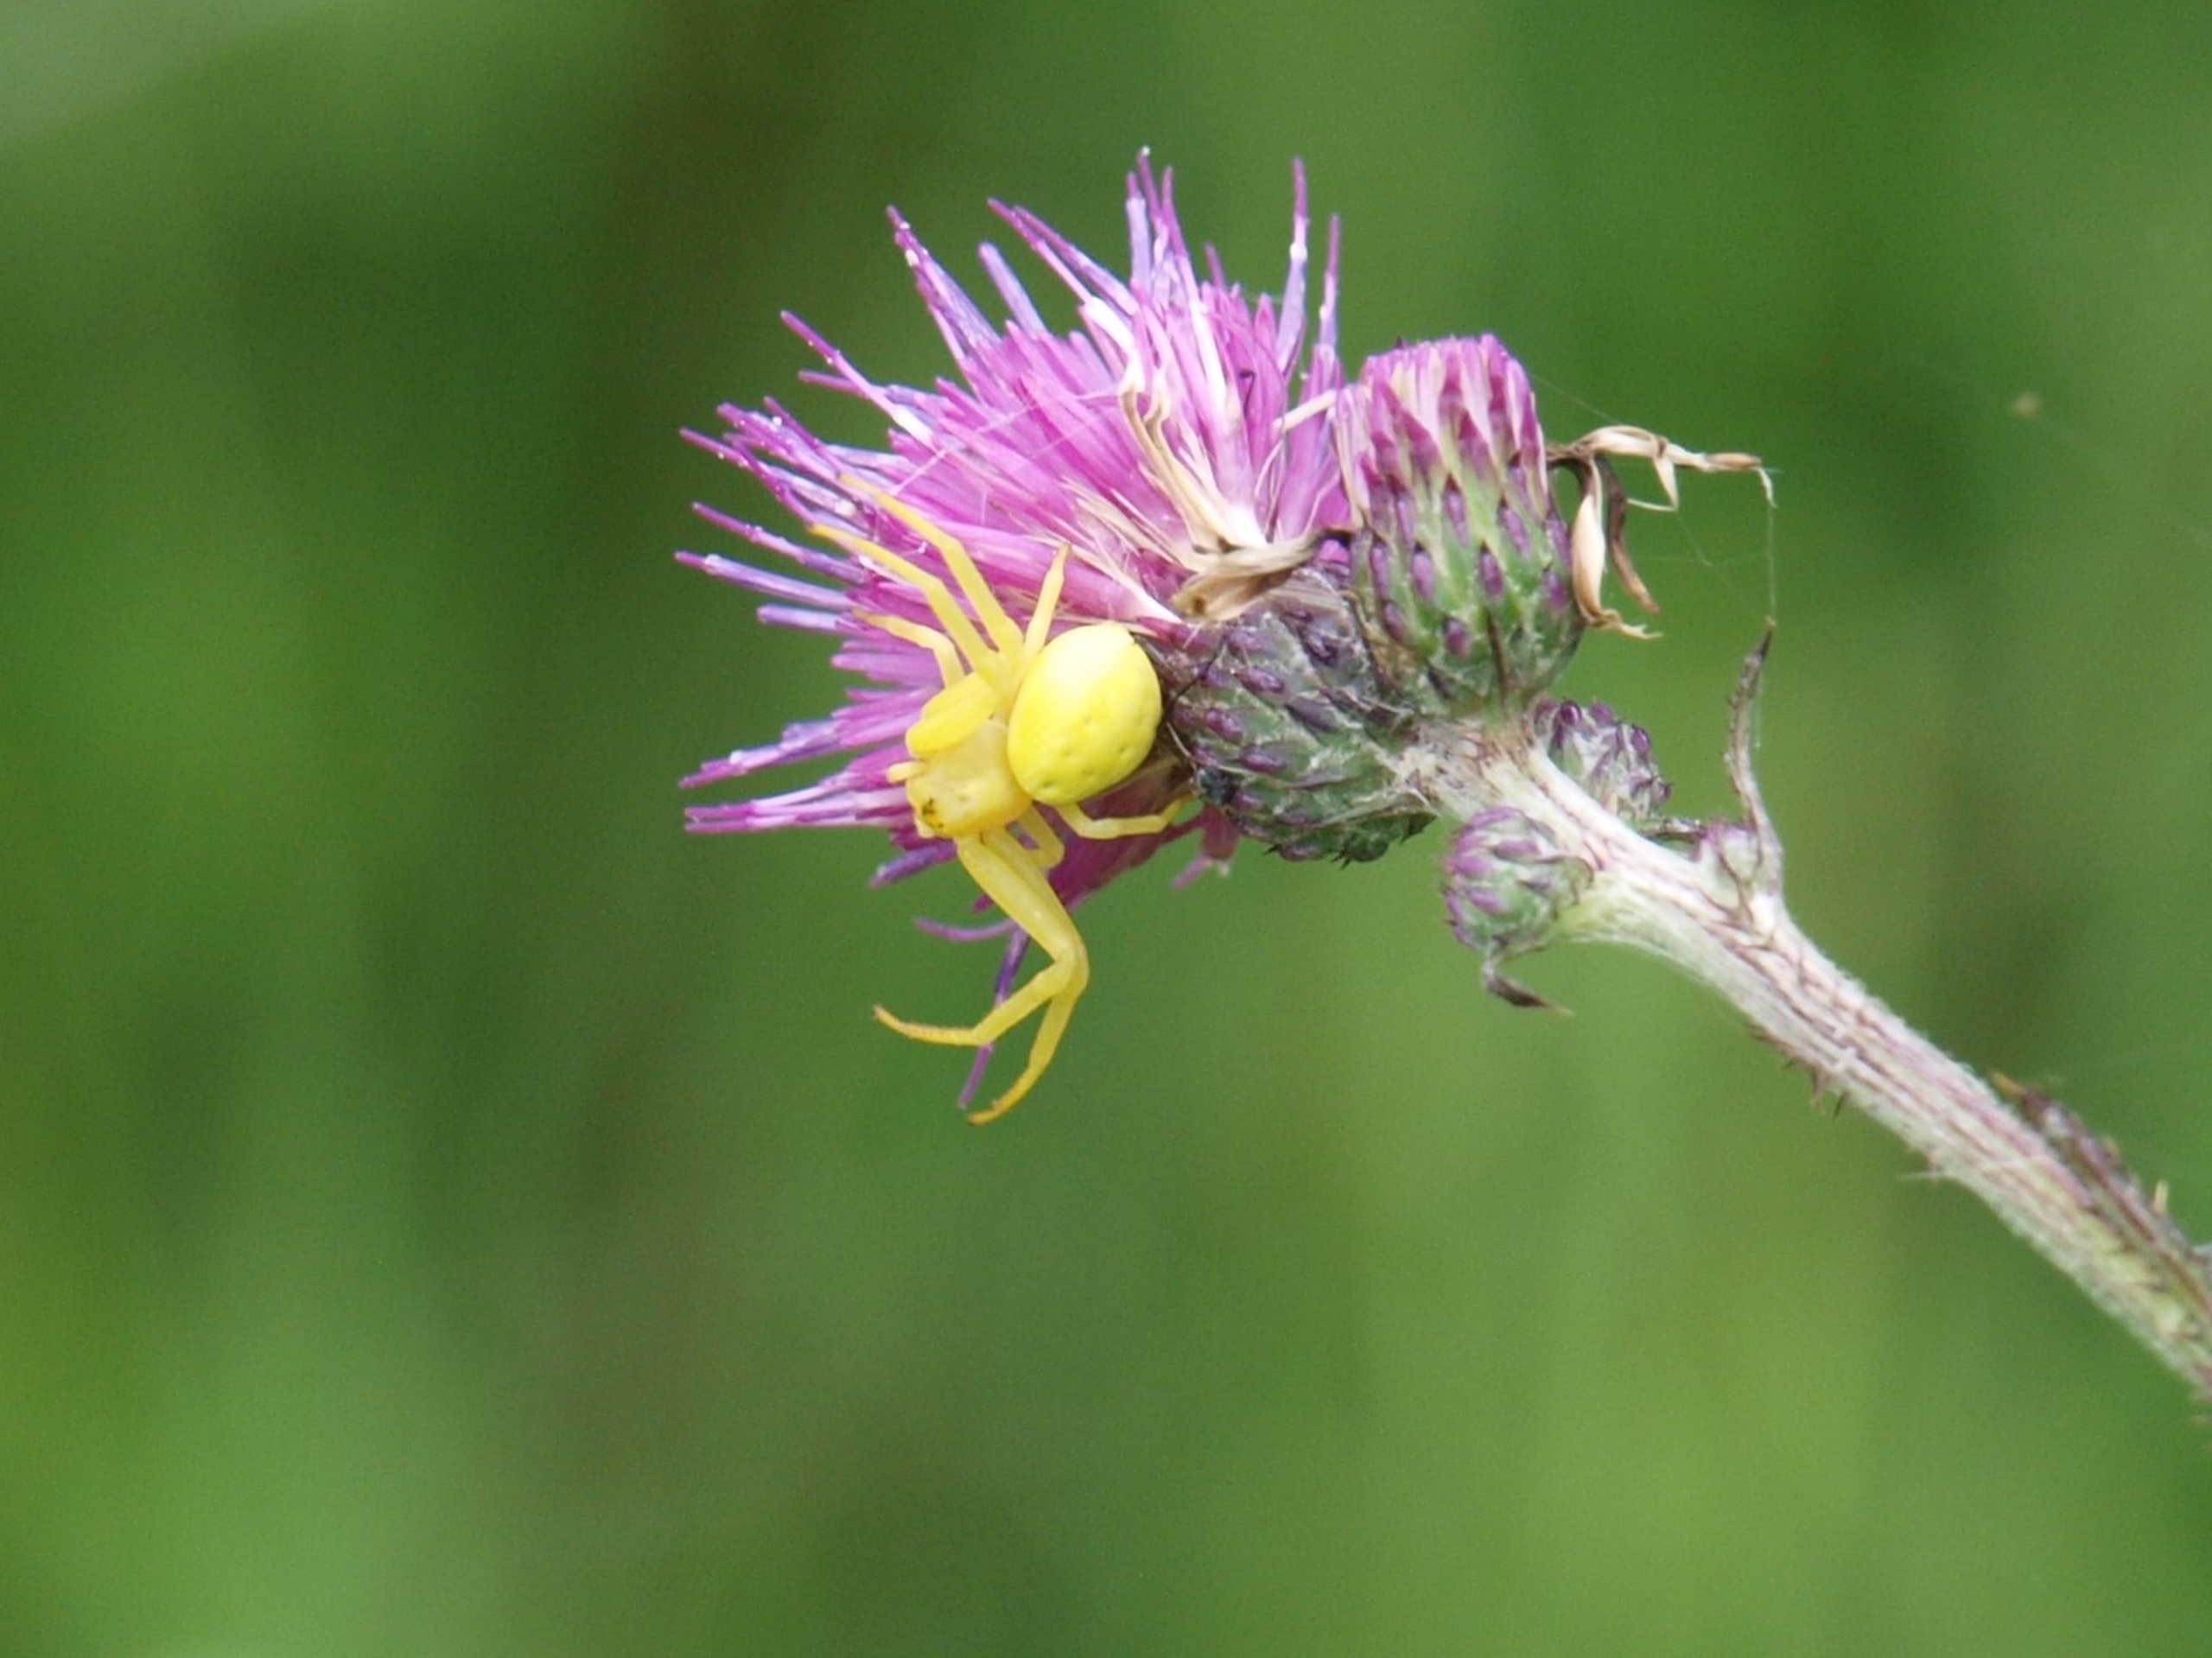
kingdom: Animalia
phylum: Arthropoda
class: Arachnida
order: Araneae
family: Thomisidae
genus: Misumena
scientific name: Misumena vatia
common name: Kamæleonedderkop
